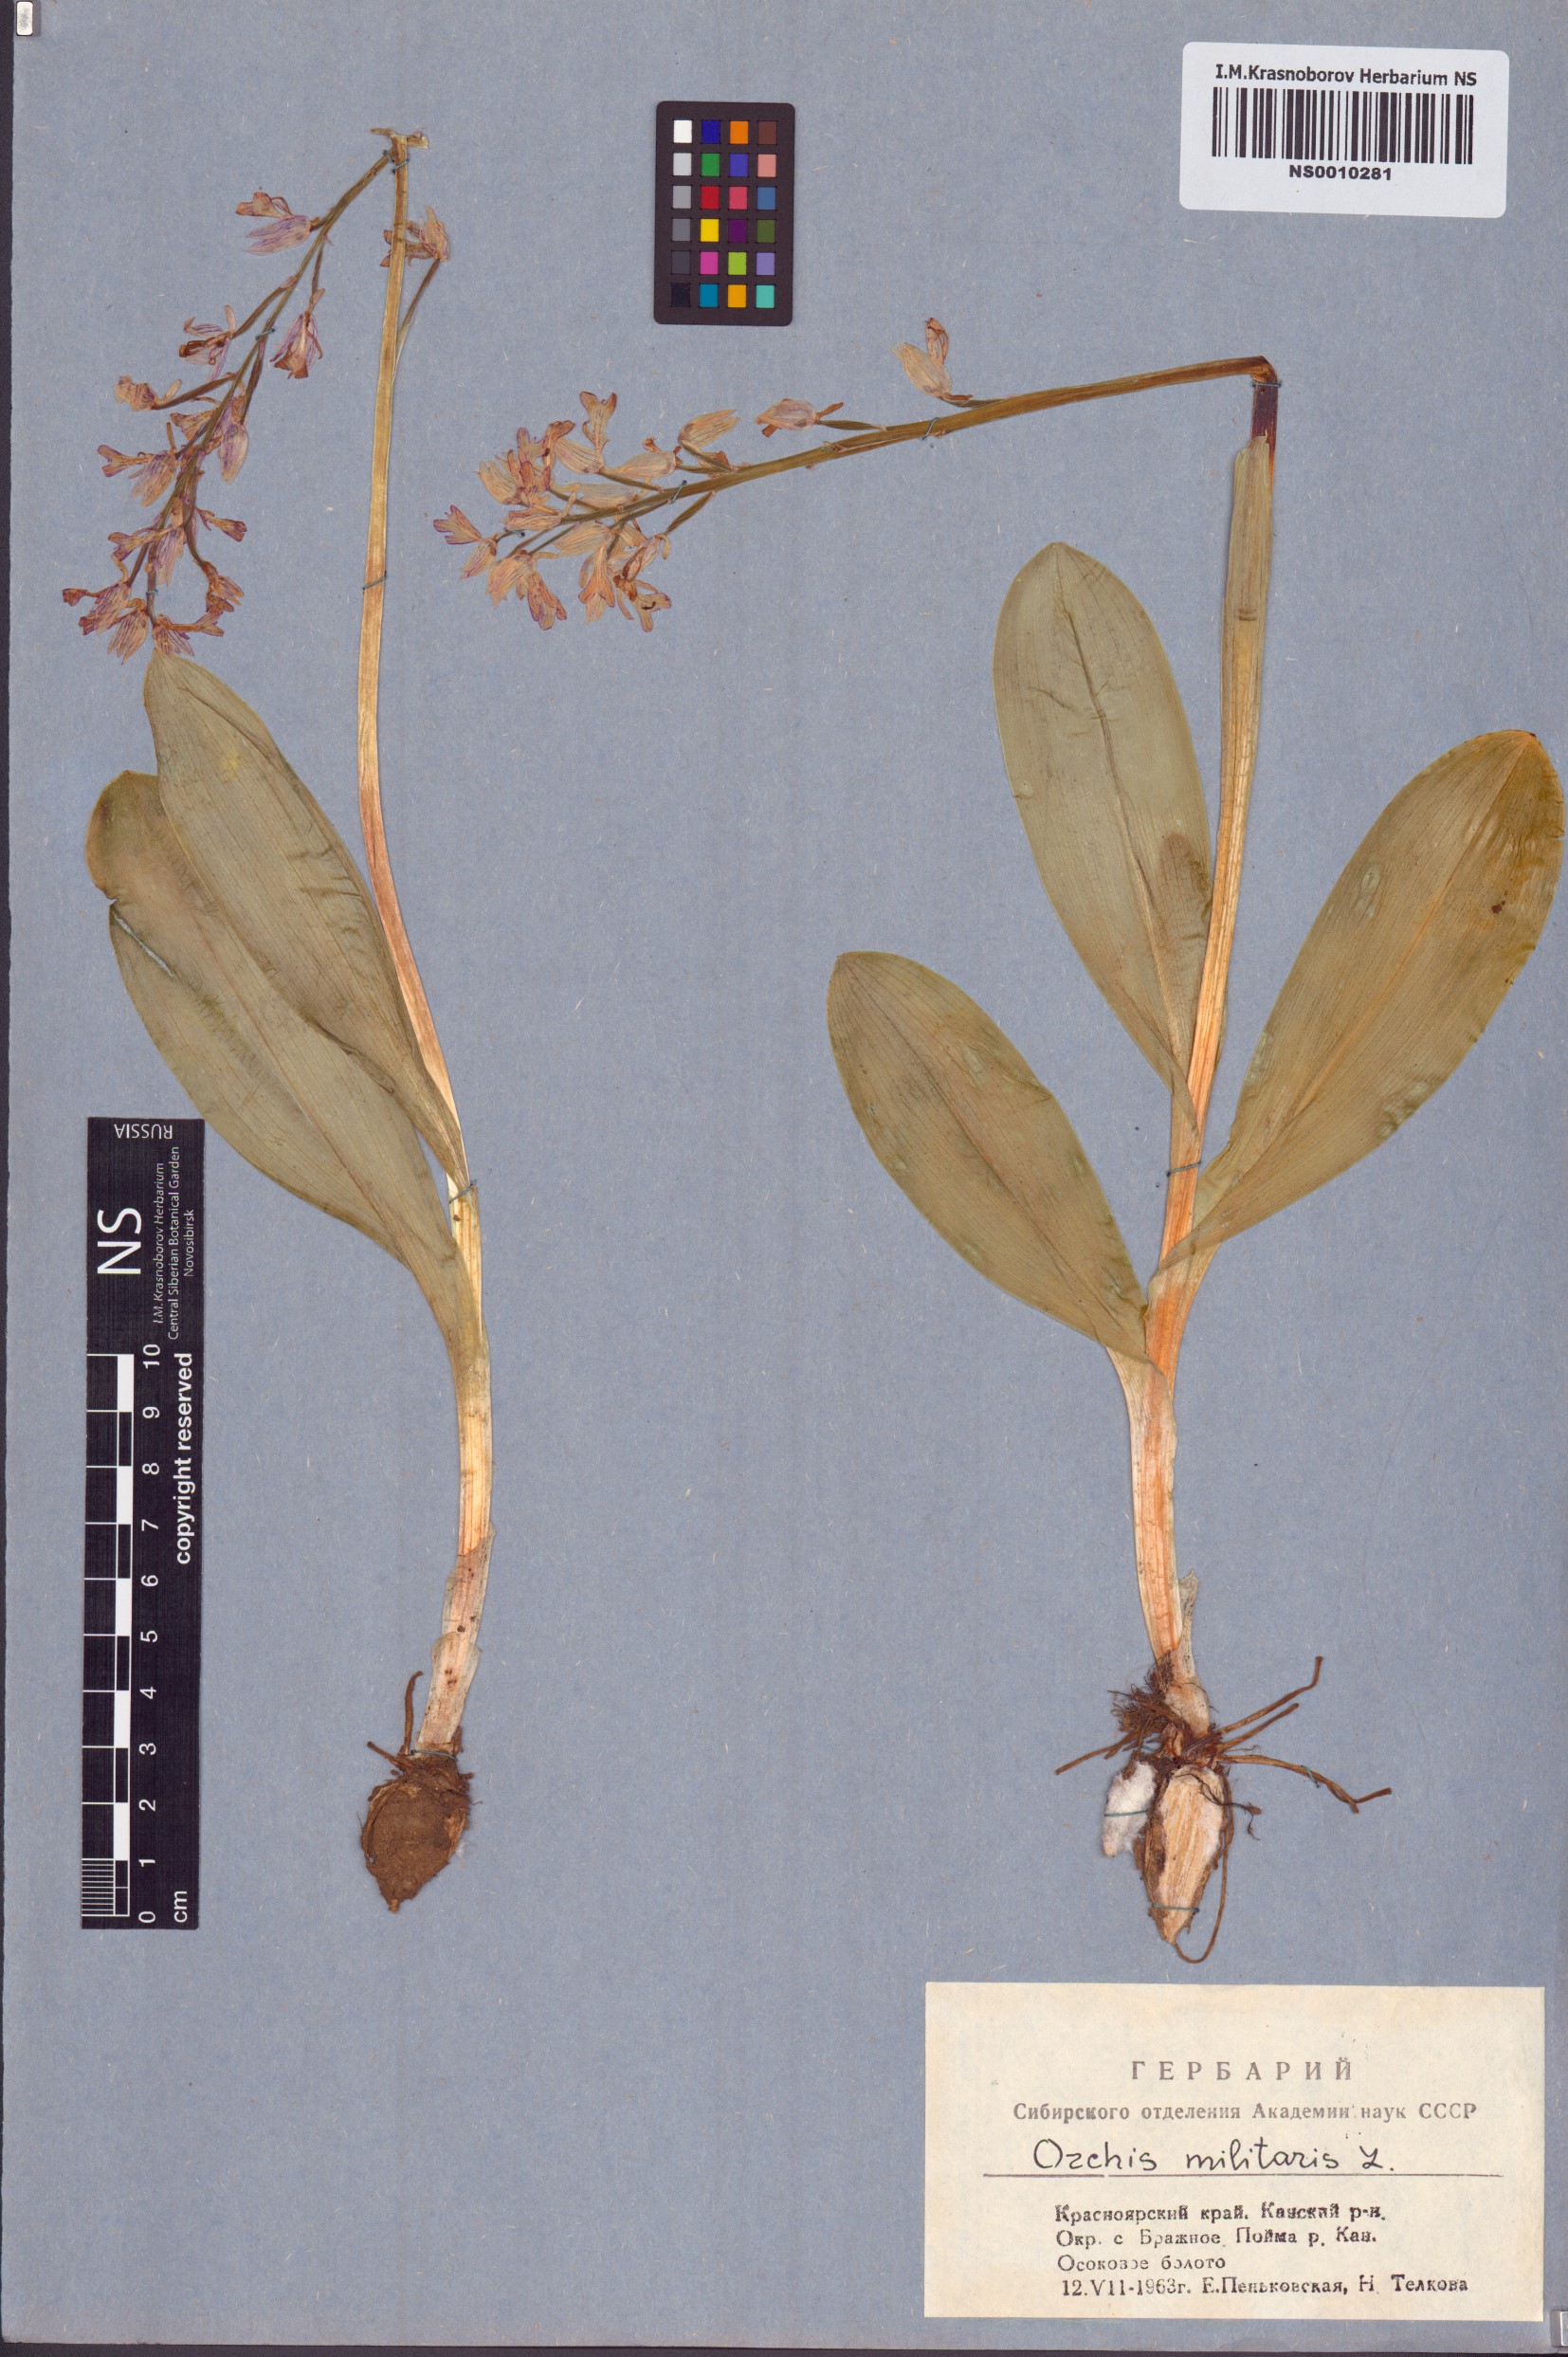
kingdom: Plantae
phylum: Tracheophyta
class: Liliopsida
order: Asparagales
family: Orchidaceae
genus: Orchis
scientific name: Orchis militaris
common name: Military orchid
